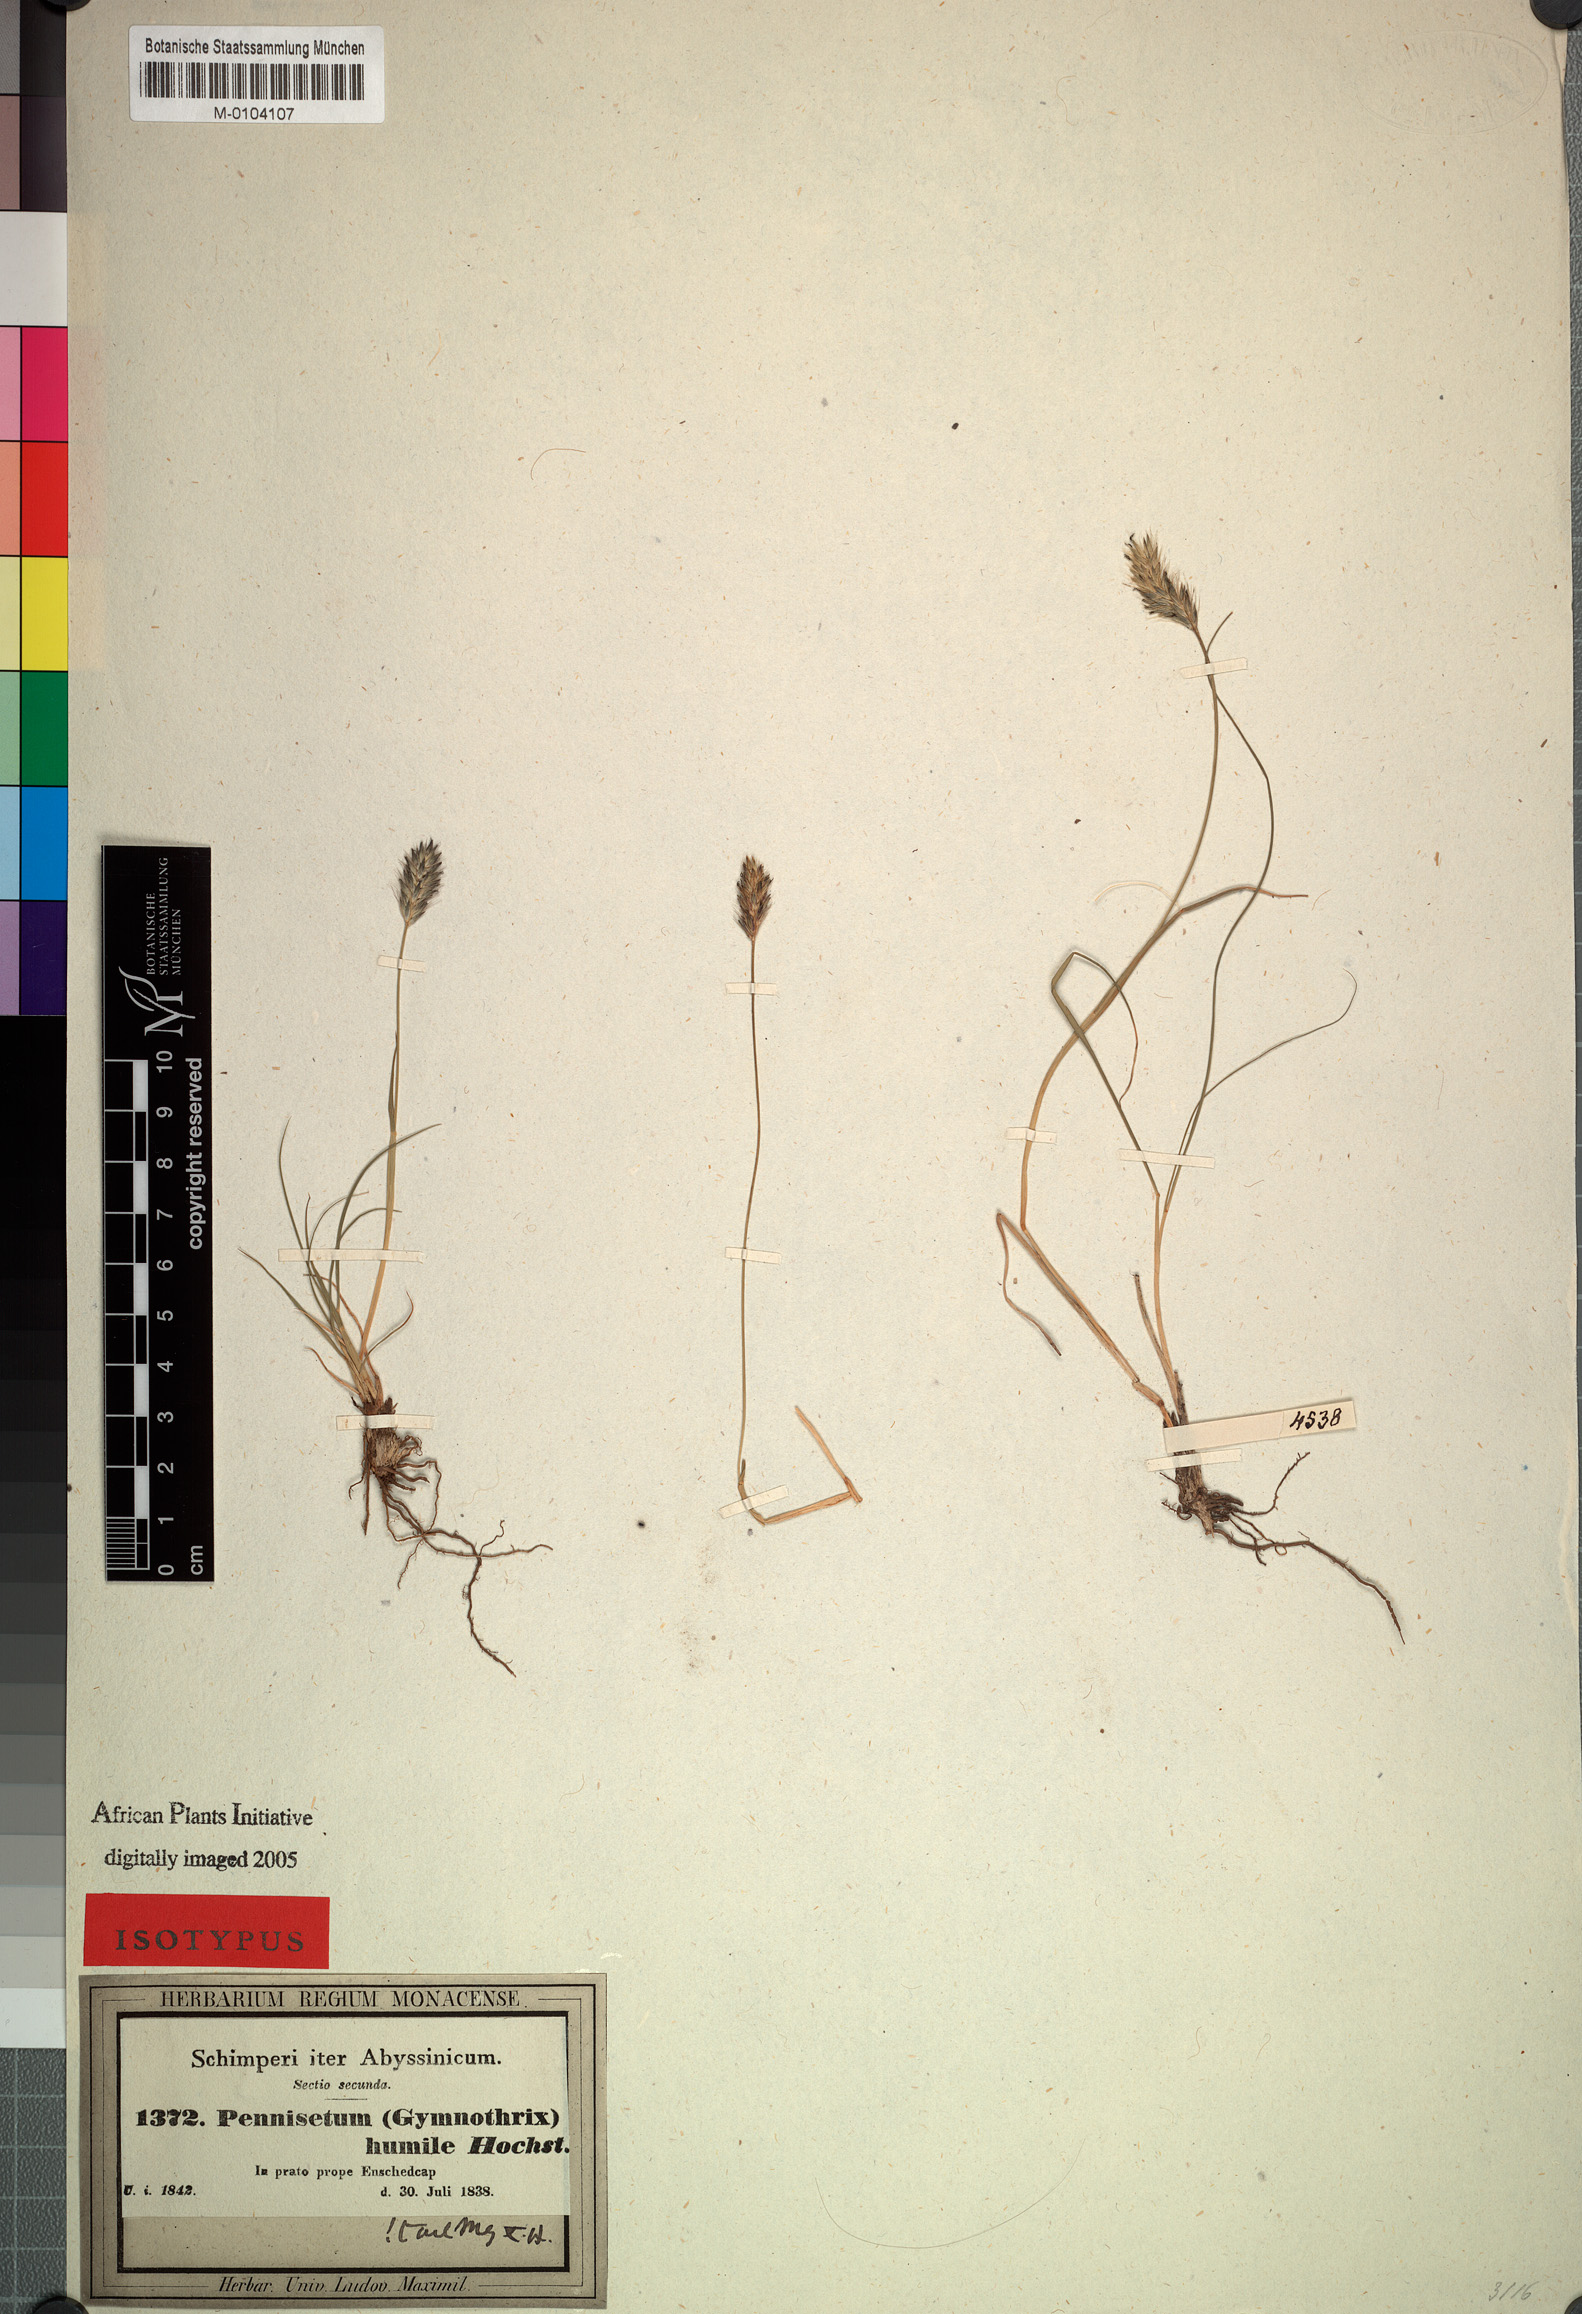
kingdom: Plantae
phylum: Tracheophyta
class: Liliopsida
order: Poales
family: Poaceae
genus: Cenchrus
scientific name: Cenchrus nanus
